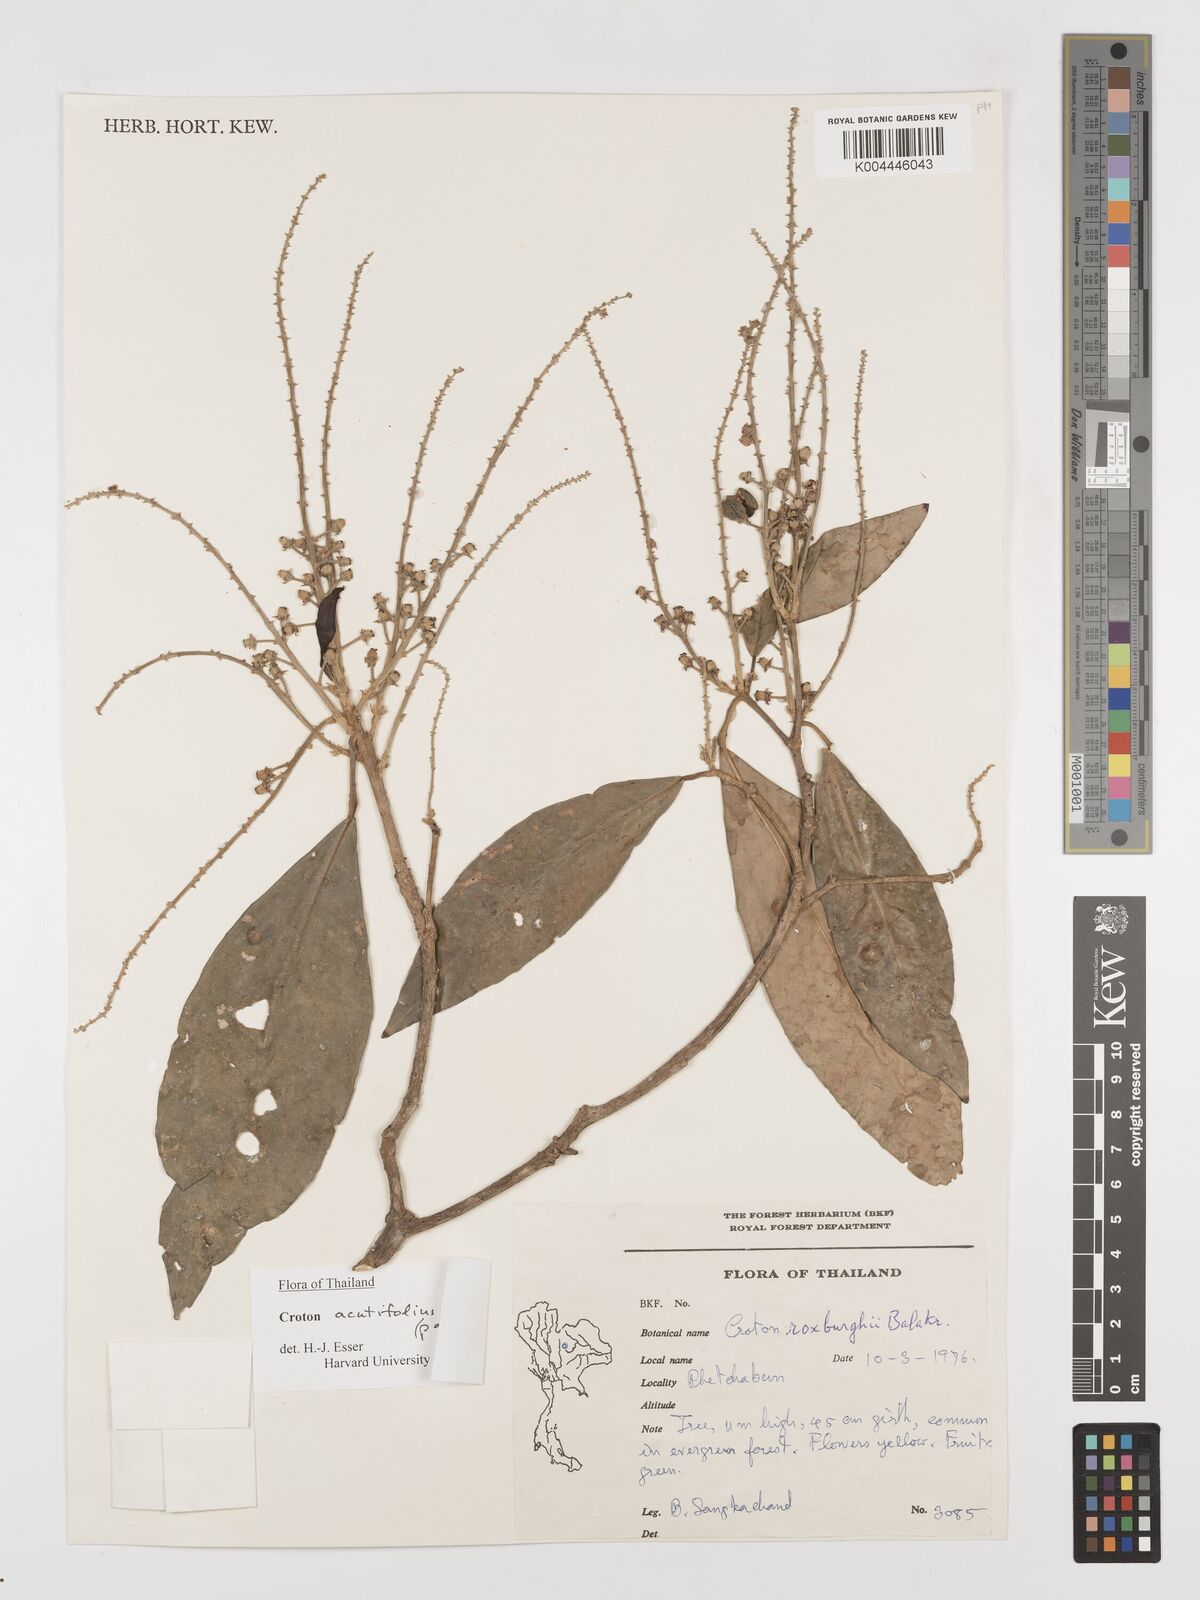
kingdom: Plantae
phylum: Tracheophyta
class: Magnoliopsida
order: Malpighiales
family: Euphorbiaceae
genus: Croton
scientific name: Croton acutifolius
